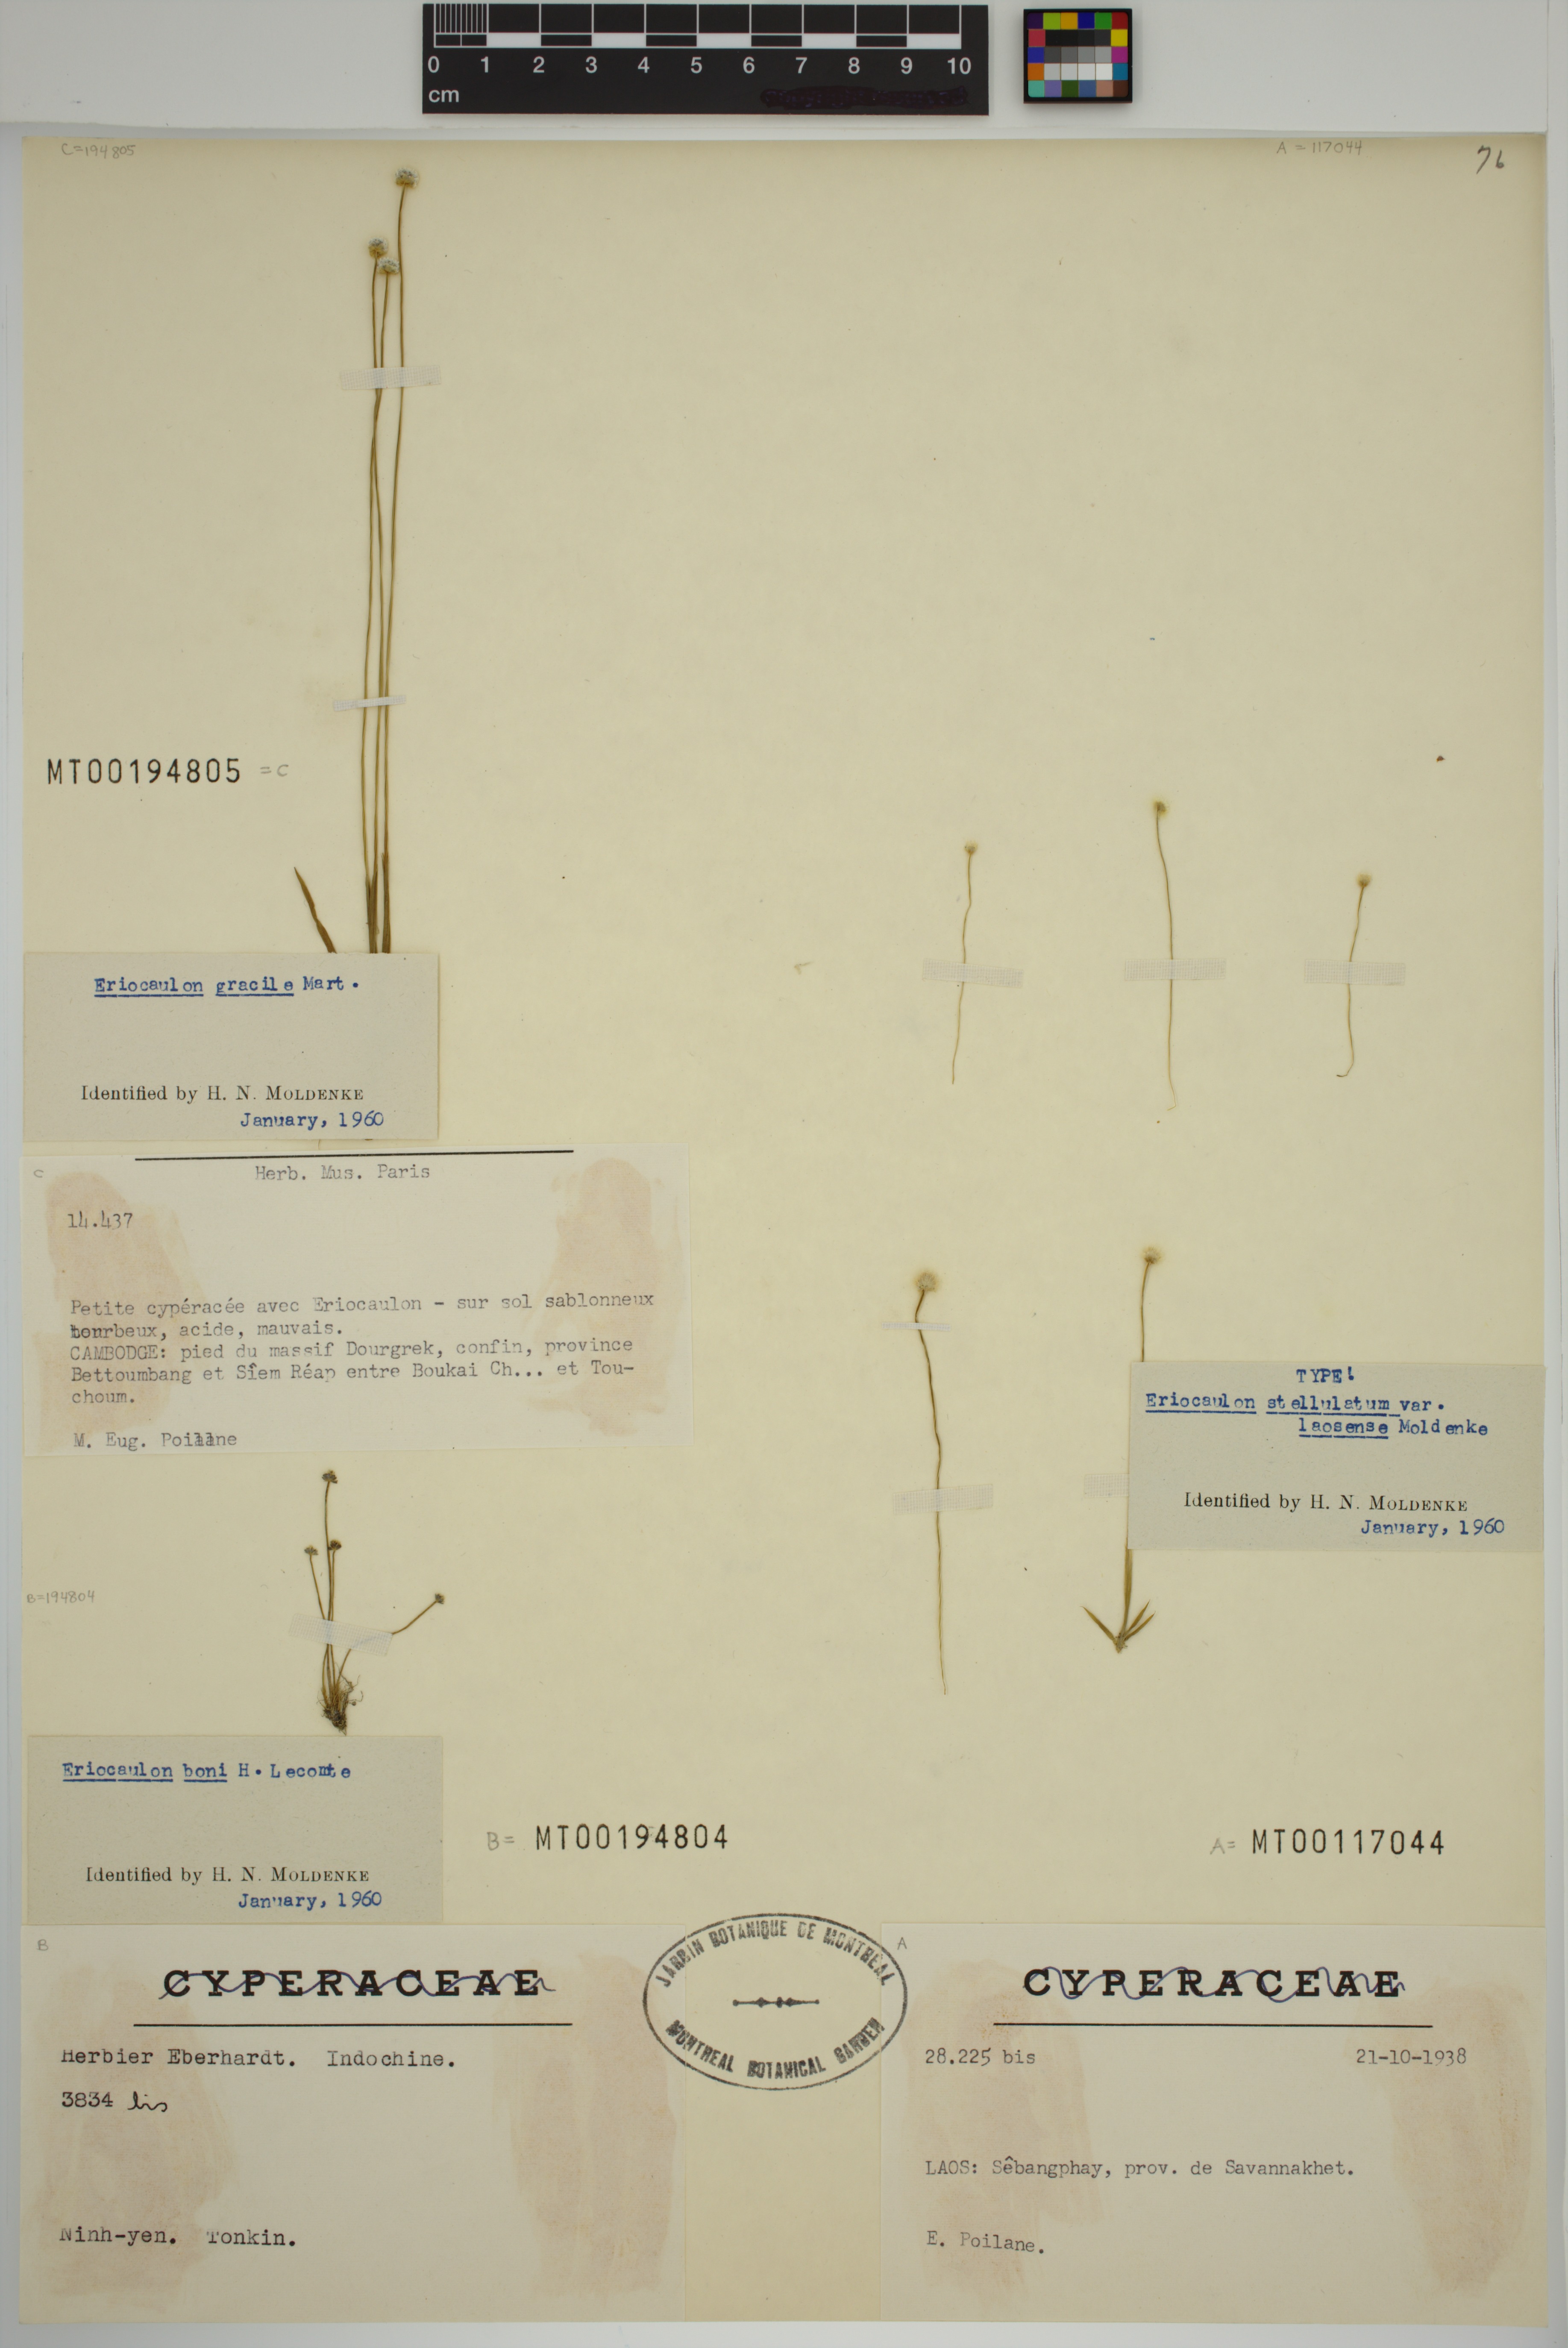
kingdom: Plantae
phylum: Tracheophyta
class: Liliopsida
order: Poales
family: Eriocaulaceae
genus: Eriocaulon
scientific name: Eriocaulon odoratum
